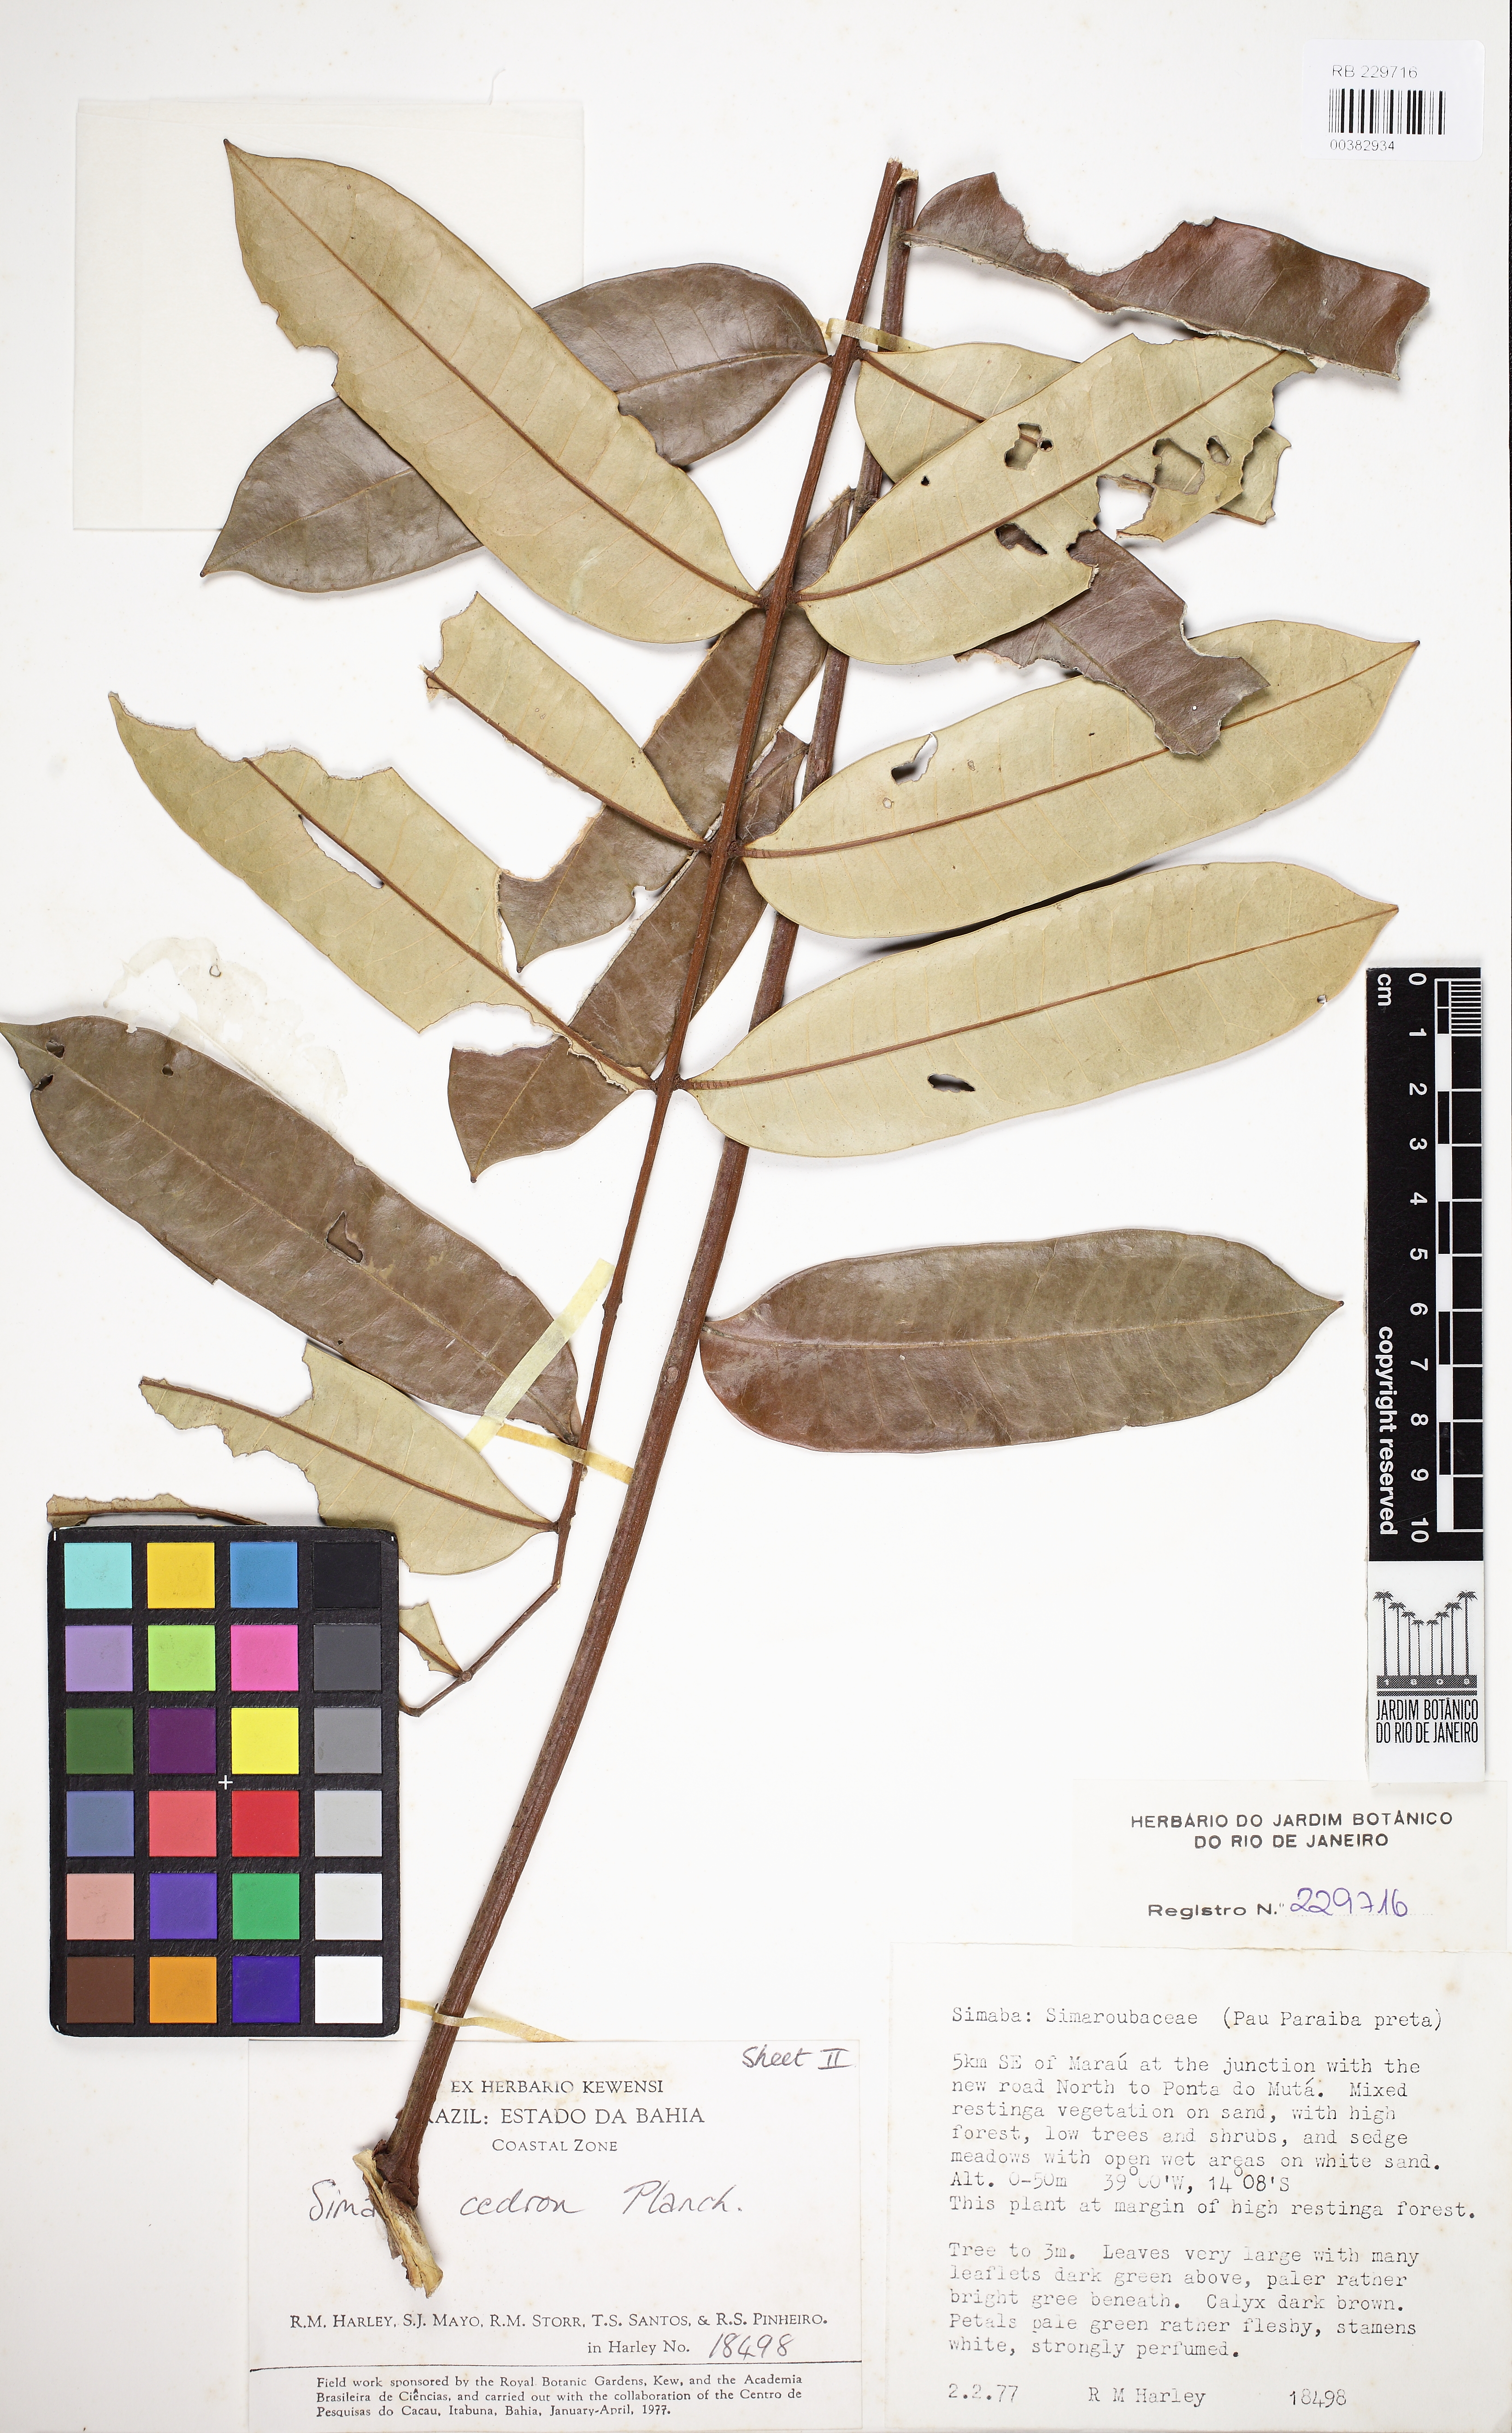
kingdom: Plantae
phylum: Tracheophyta
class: Magnoliopsida
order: Sapindales
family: Simaroubaceae
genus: Homalolepis
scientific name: Homalolepis cedron
